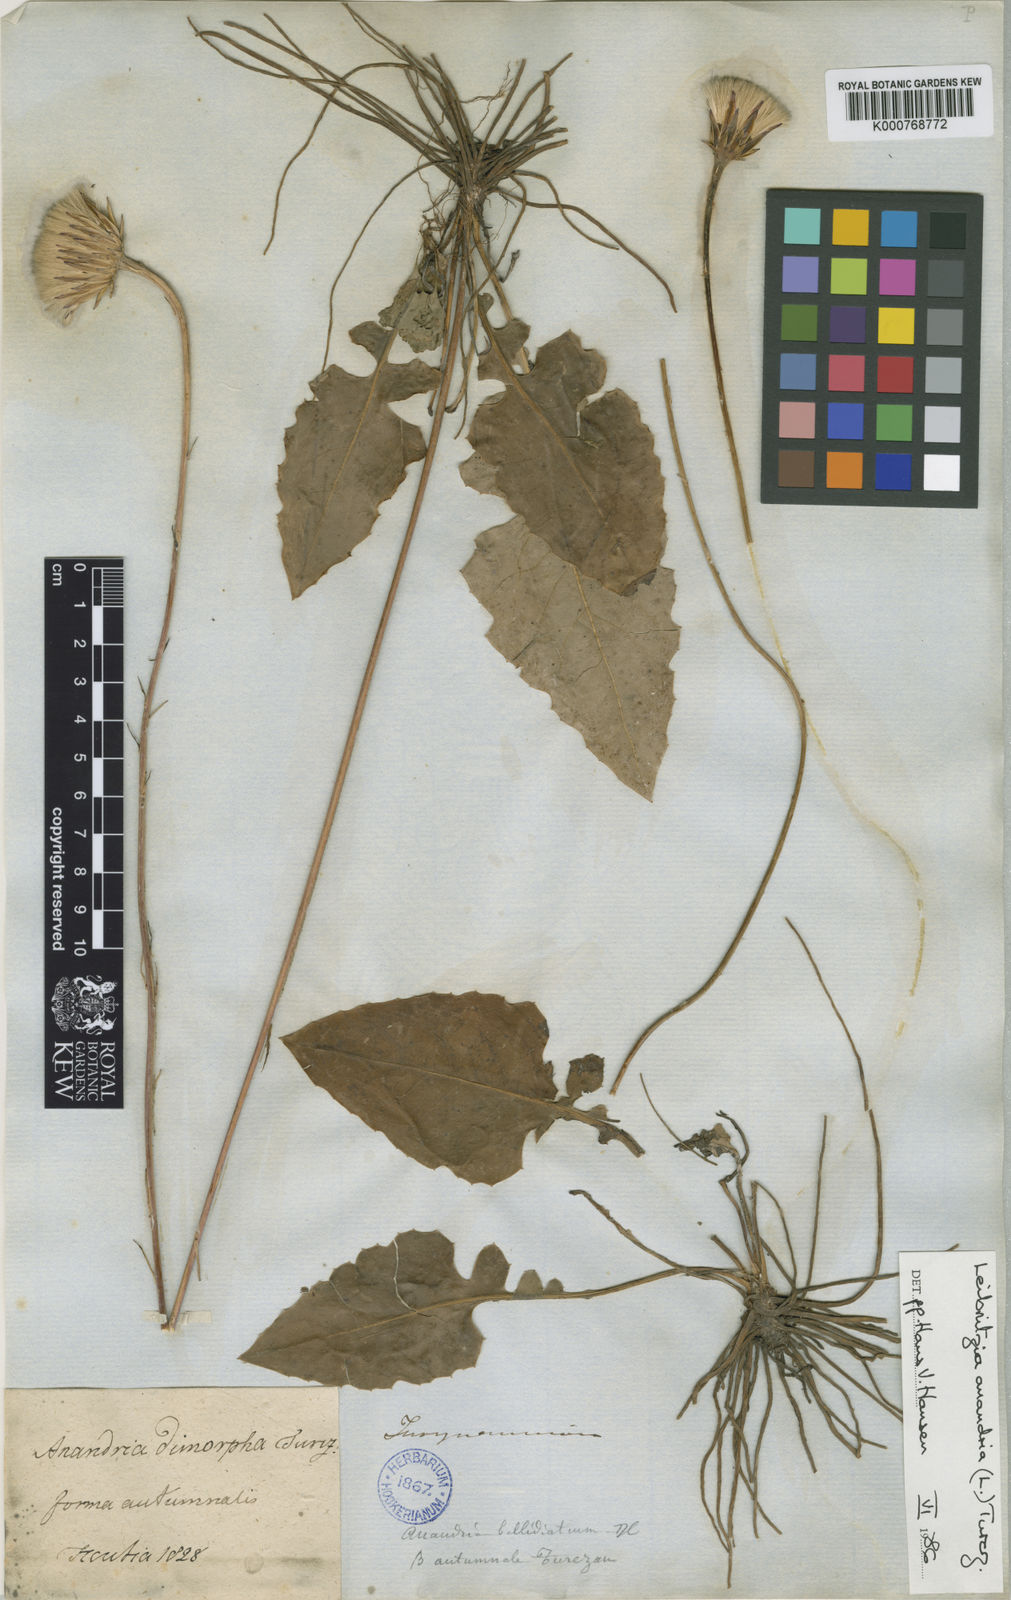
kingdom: Plantae
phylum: Tracheophyta
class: Magnoliopsida
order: Asterales
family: Asteraceae
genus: Leibnitzia
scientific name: Leibnitzia
